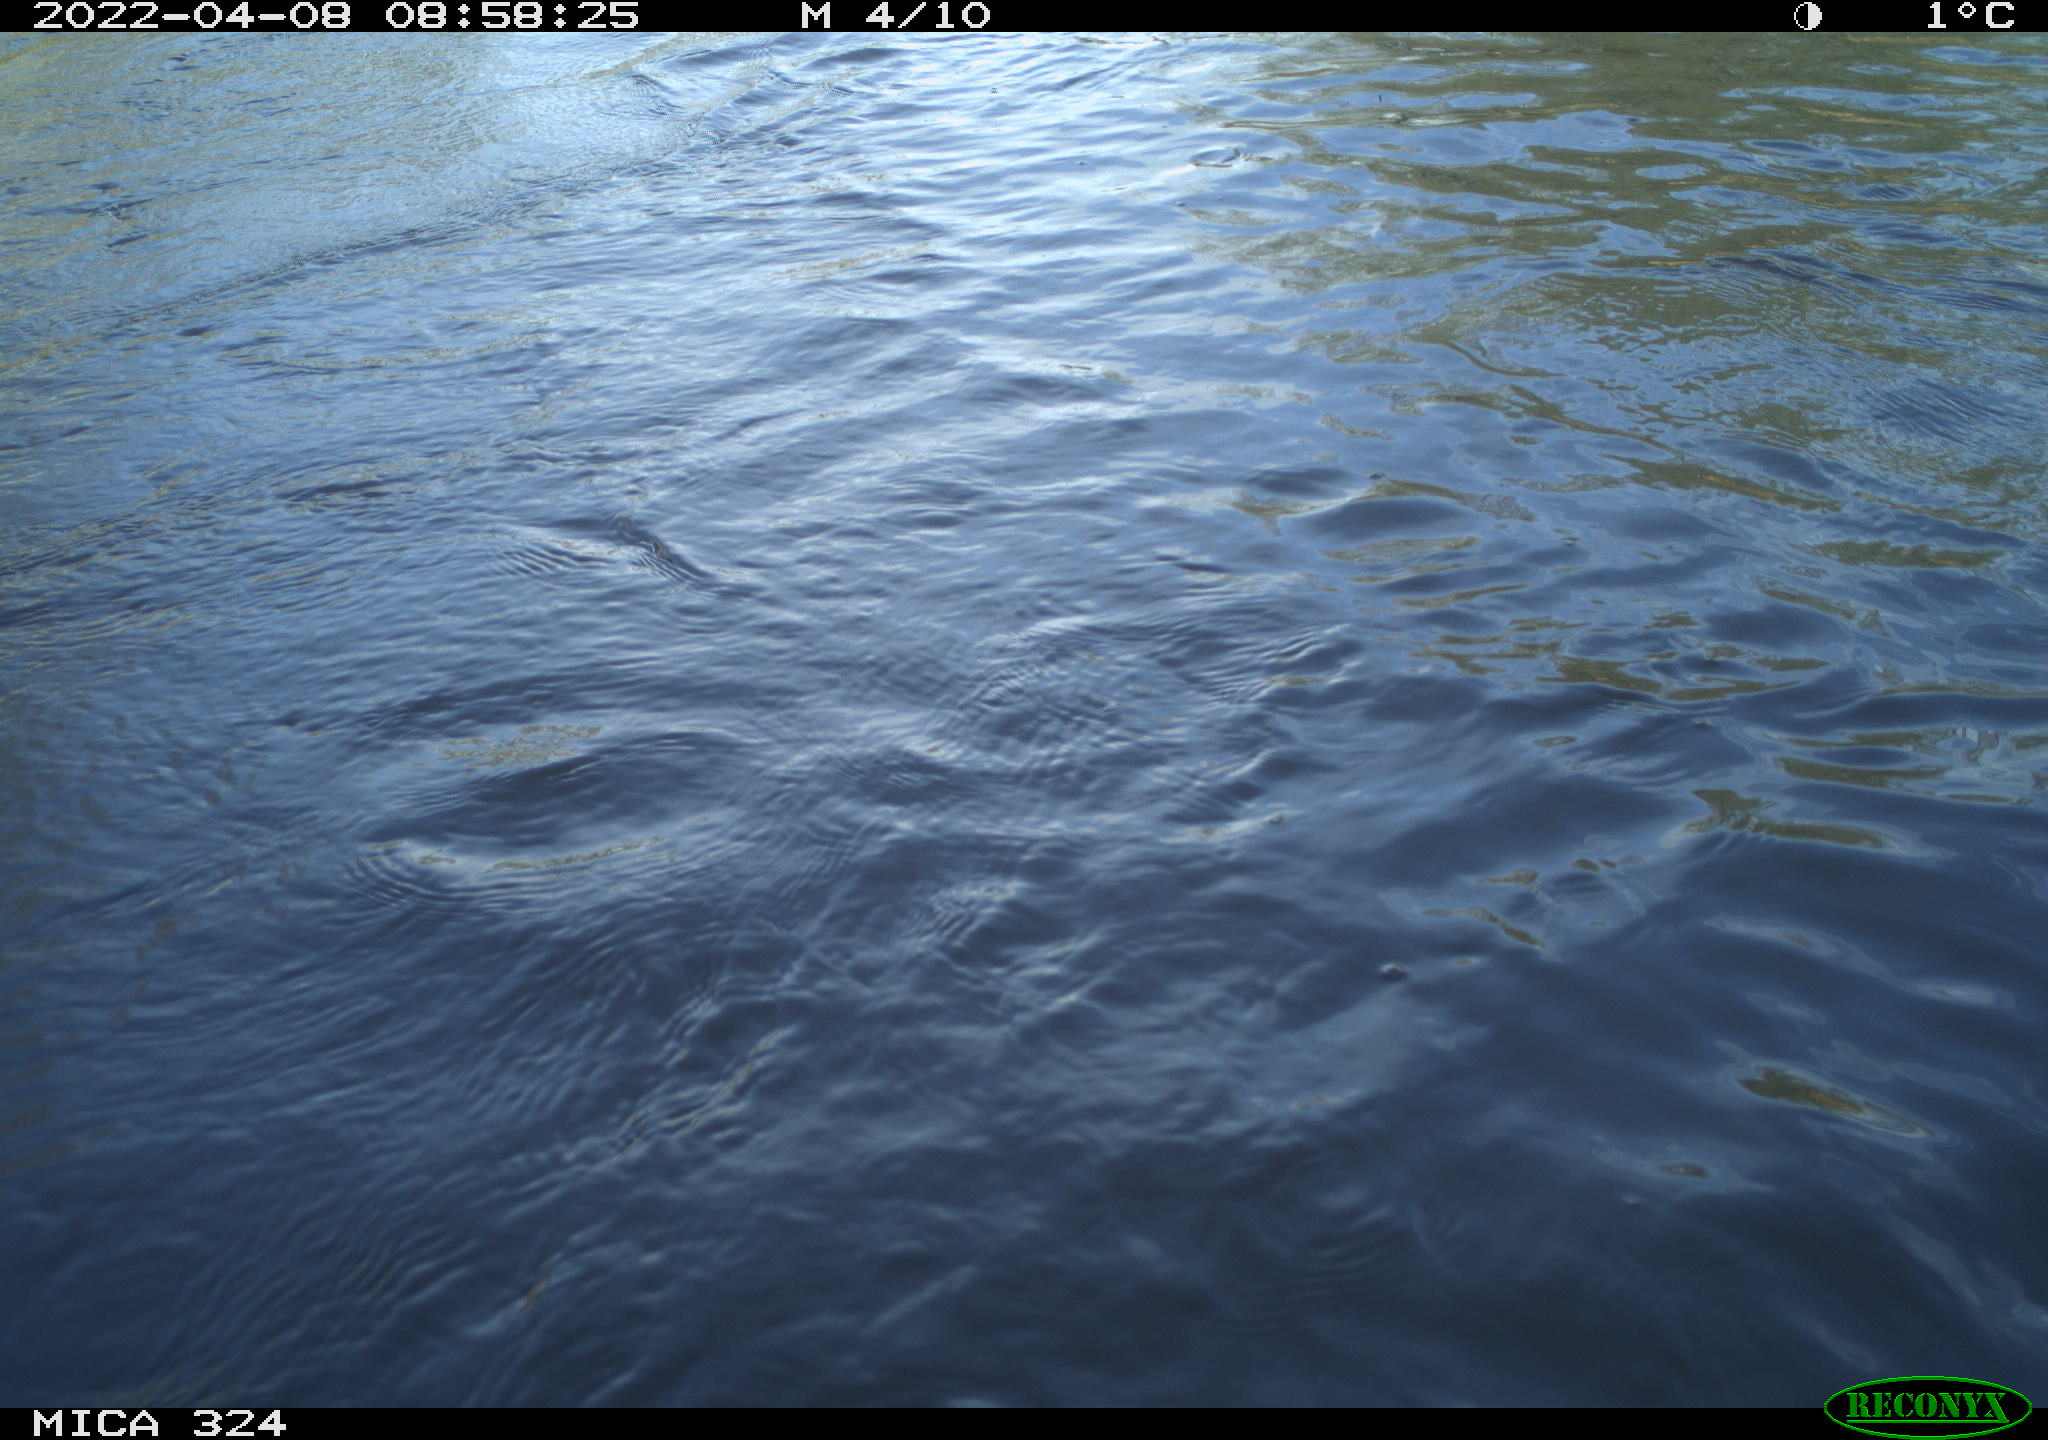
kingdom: Animalia
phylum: Chordata
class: Mammalia
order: Rodentia
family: Cricetidae
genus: Ondatra
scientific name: Ondatra zibethicus
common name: Muskrat
